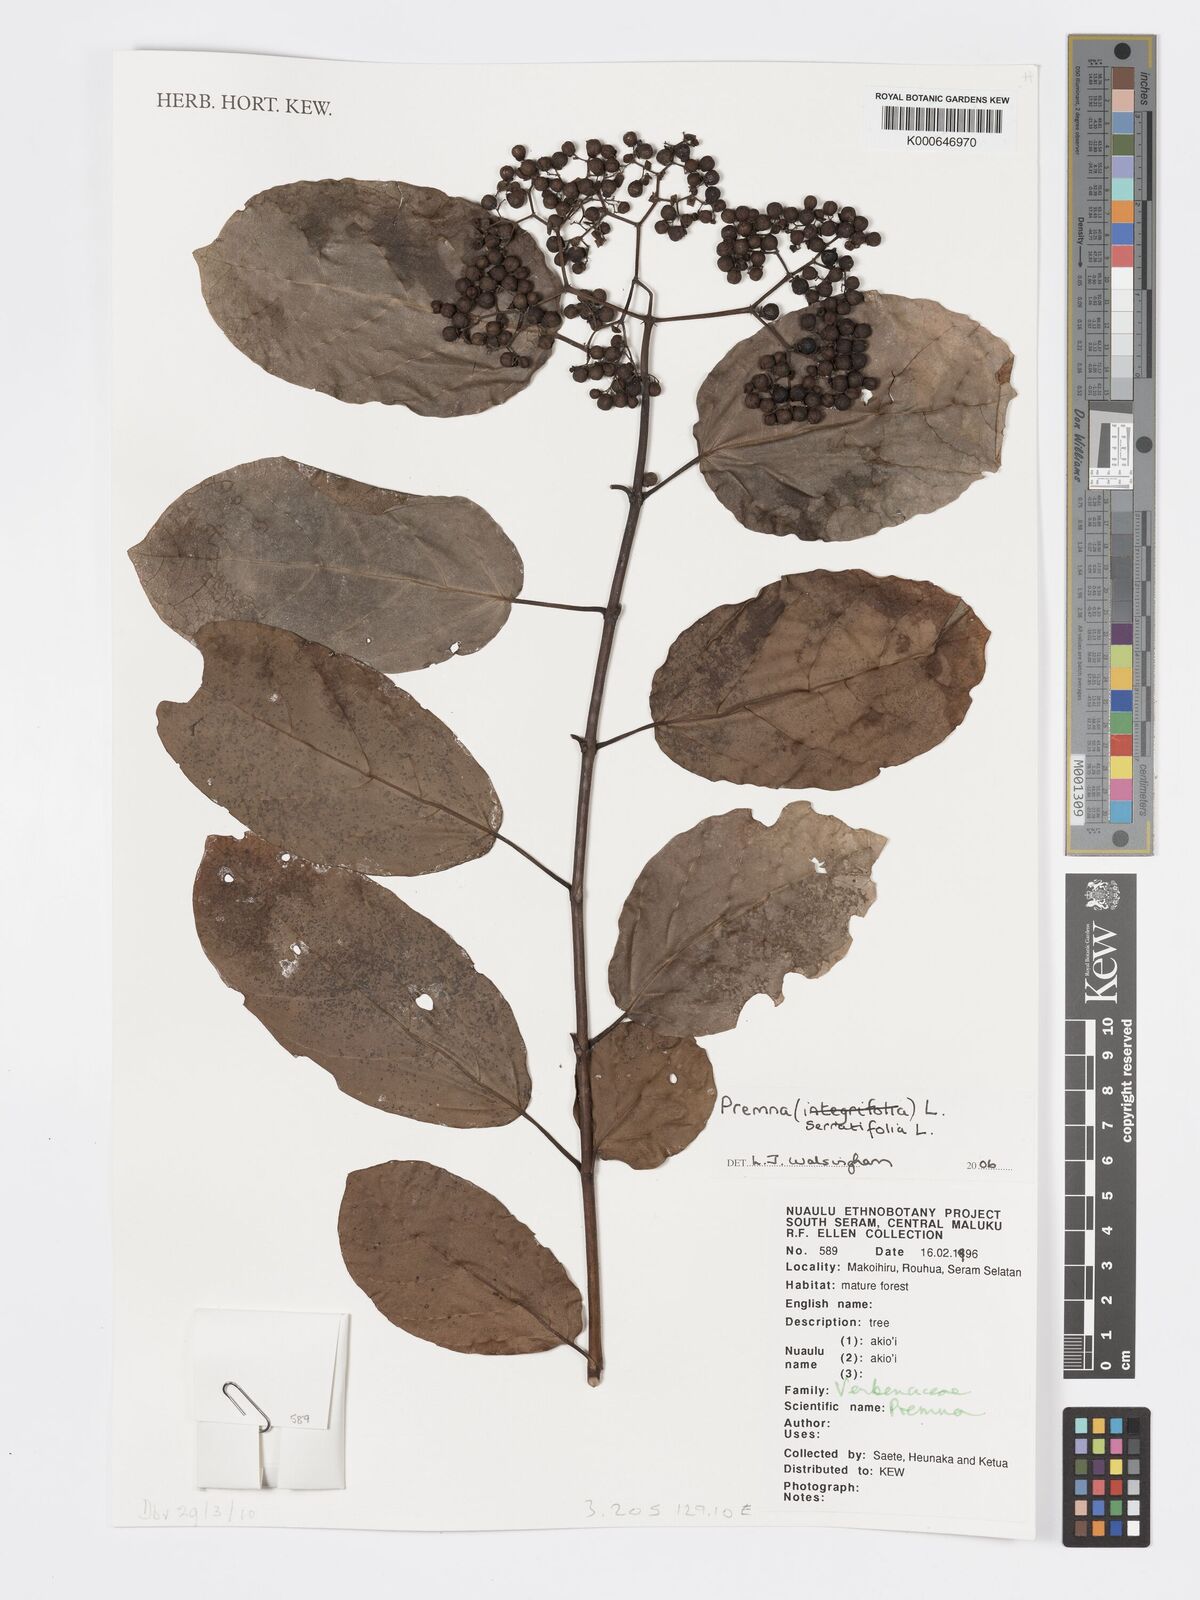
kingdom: Plantae
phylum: Tracheophyta
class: Magnoliopsida
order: Lamiales
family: Lamiaceae
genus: Premna
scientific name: Premna serratifolia
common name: Bastard guelder
